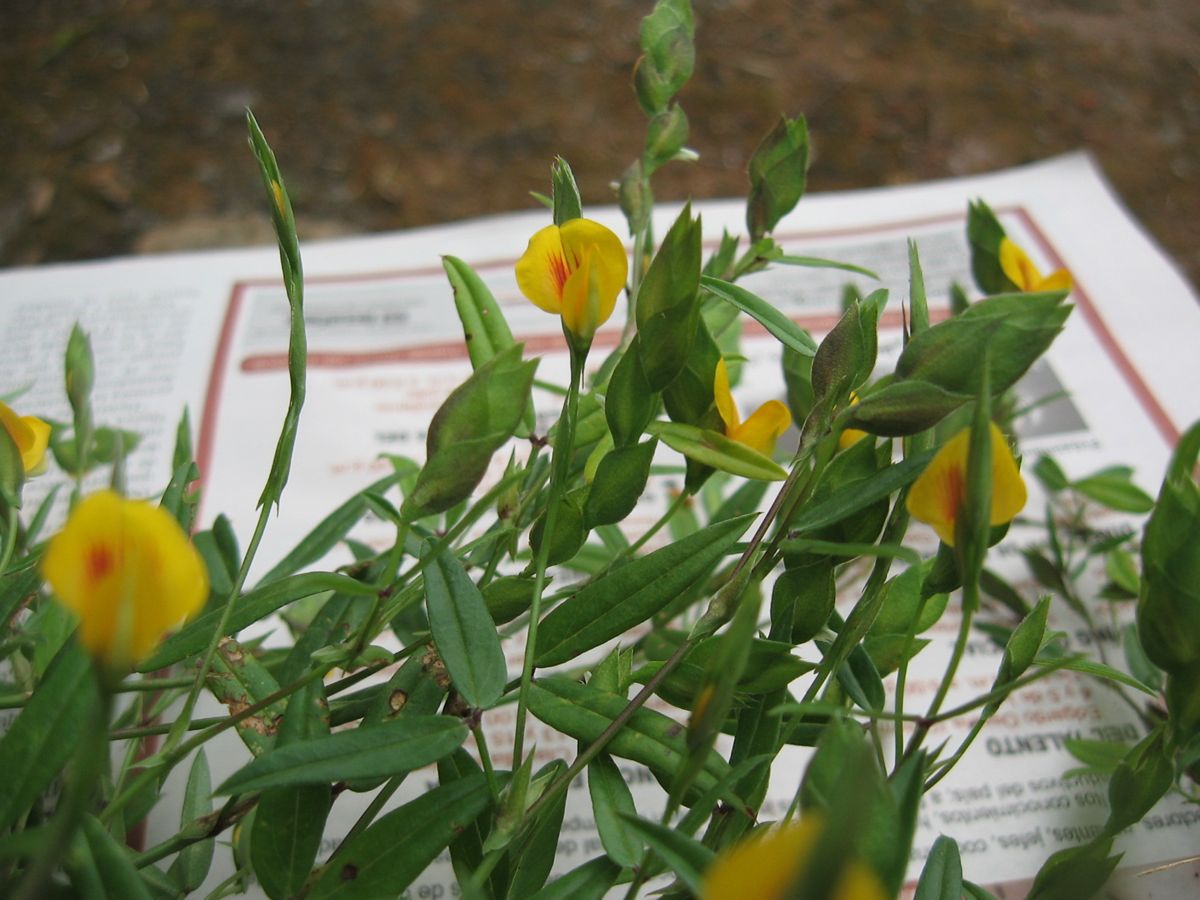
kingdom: Plantae
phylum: Tracheophyta
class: Magnoliopsida
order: Fabales
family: Fabaceae
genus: Zornia
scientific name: Zornia reticulata
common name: Reticulate viperina
